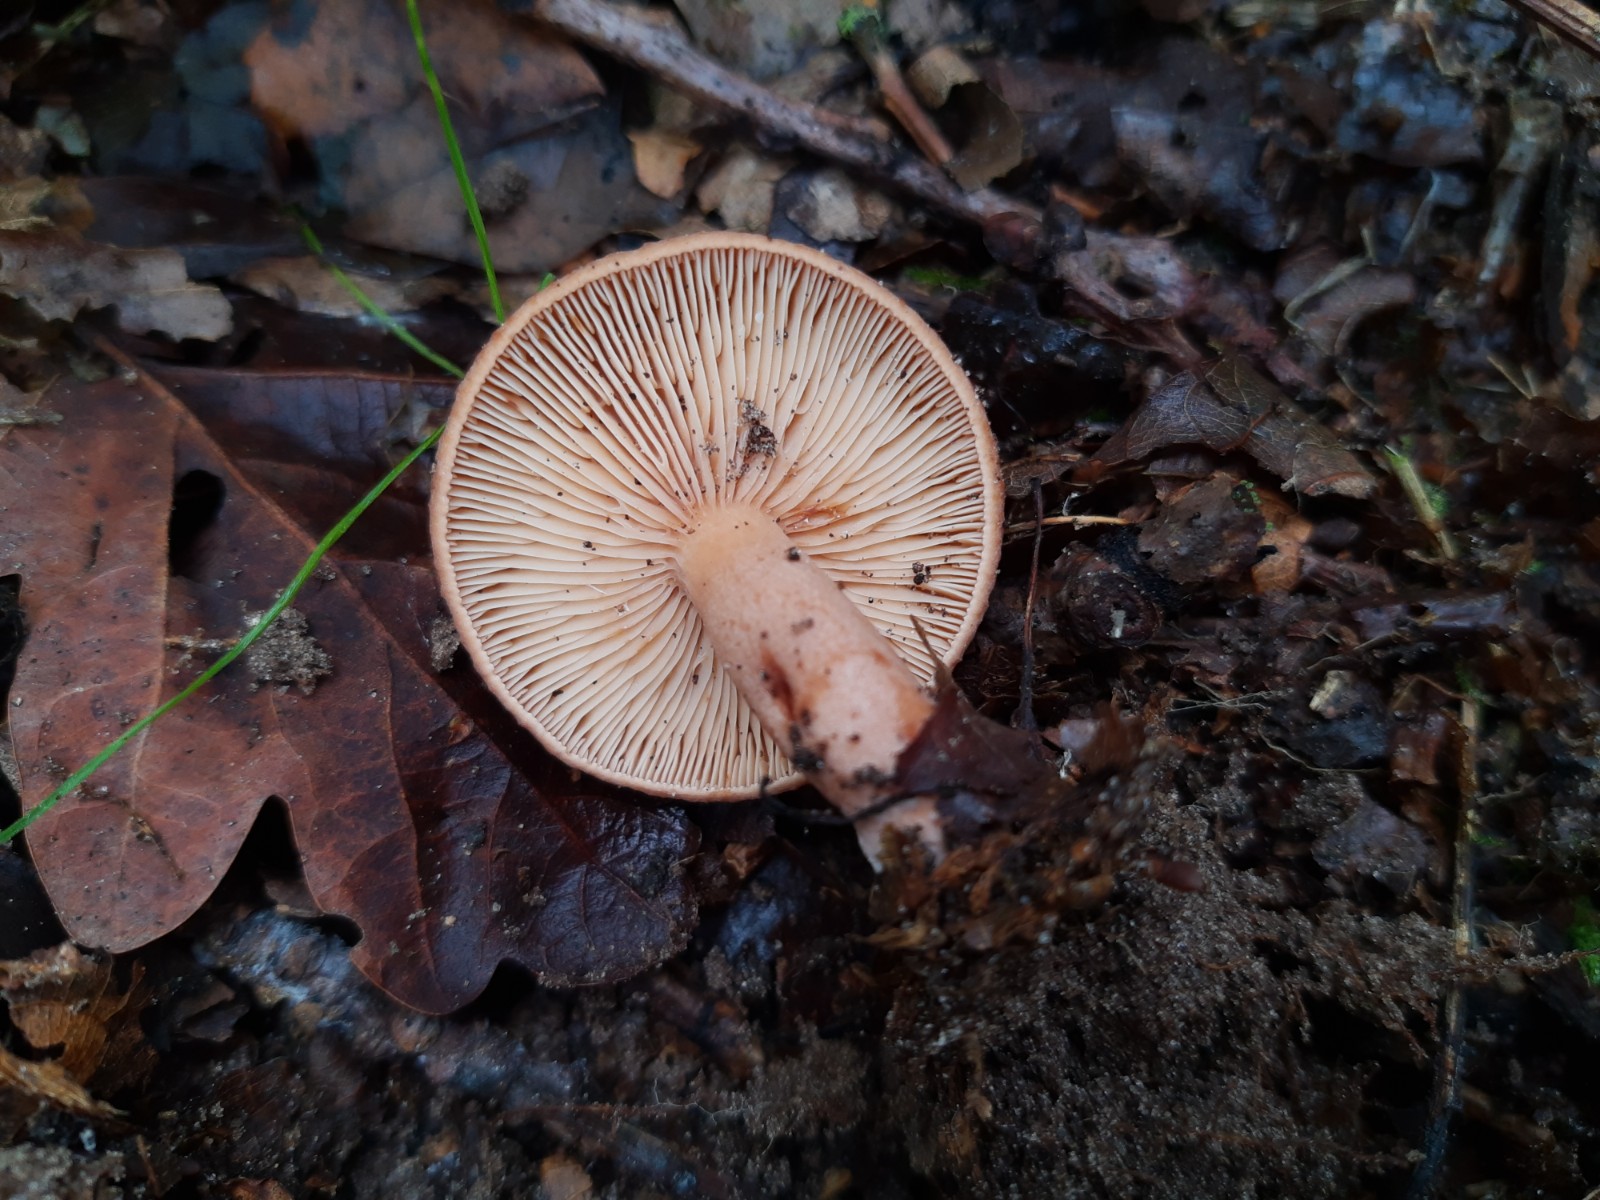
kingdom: Fungi
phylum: Basidiomycota
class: Agaricomycetes
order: Russulales
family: Russulaceae
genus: Lactarius
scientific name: Lactarius quietus
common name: ege-mælkehat
